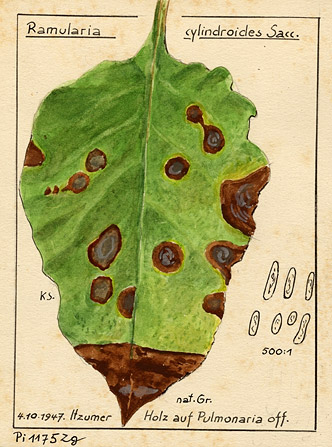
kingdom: Fungi
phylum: Ascomycota
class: Dothideomycetes
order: Mycosphaerellales
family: Mycosphaerellaceae
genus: Ramularia
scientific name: Ramularia cylindroides
